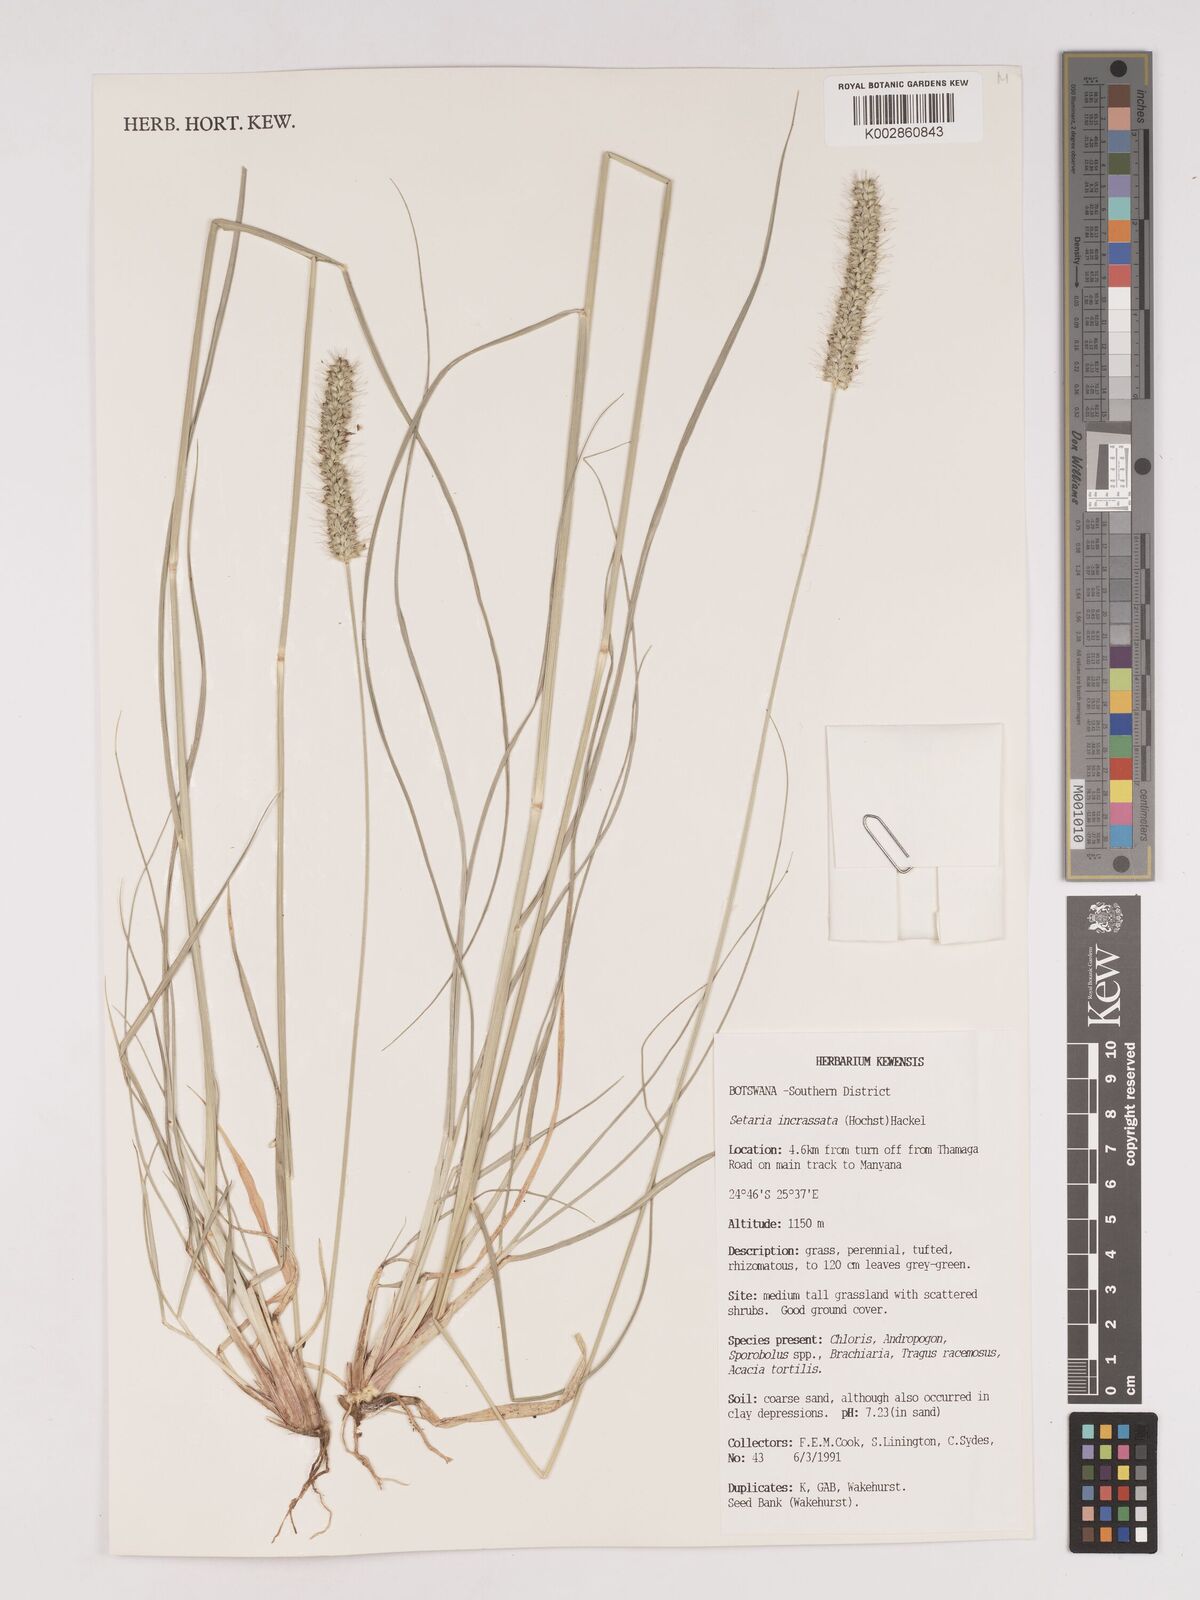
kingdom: Plantae
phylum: Tracheophyta
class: Liliopsida
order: Poales
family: Poaceae
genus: Setaria
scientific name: Setaria incrassata
